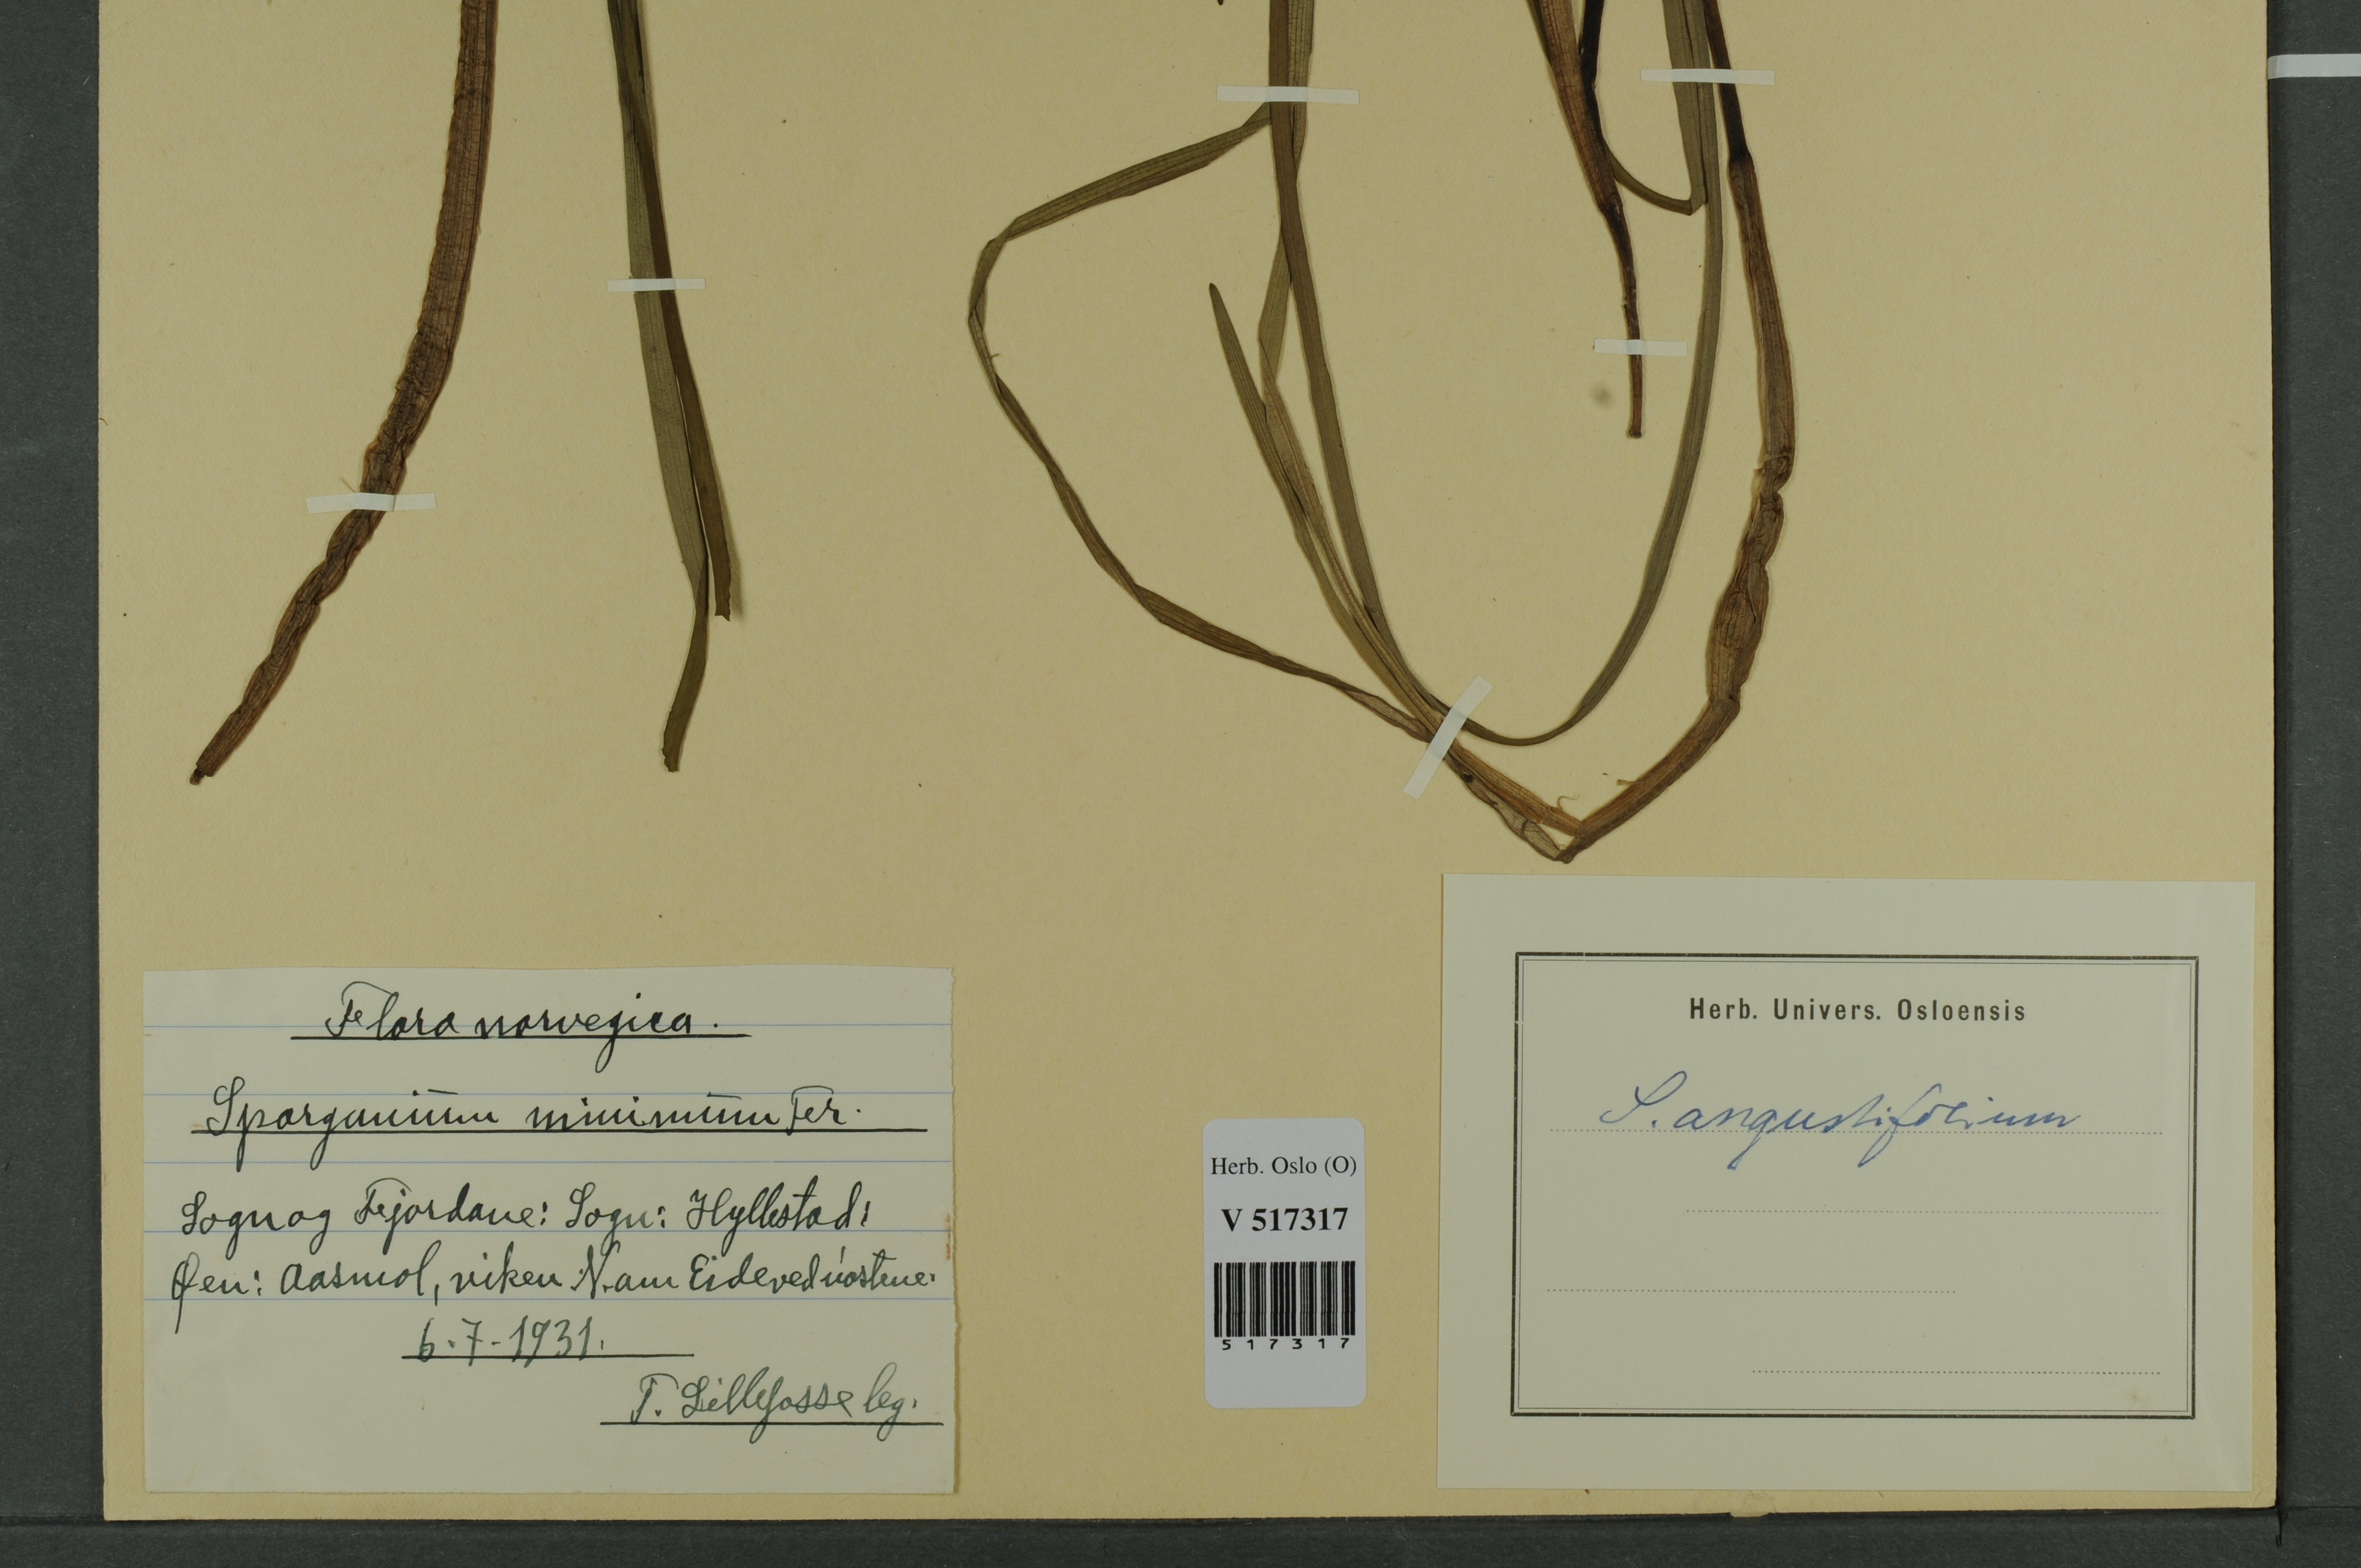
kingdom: Plantae
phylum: Tracheophyta
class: Liliopsida
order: Poales
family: Typhaceae
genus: Sparganium
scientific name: Sparganium angustifolium
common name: Floating bur-reed
